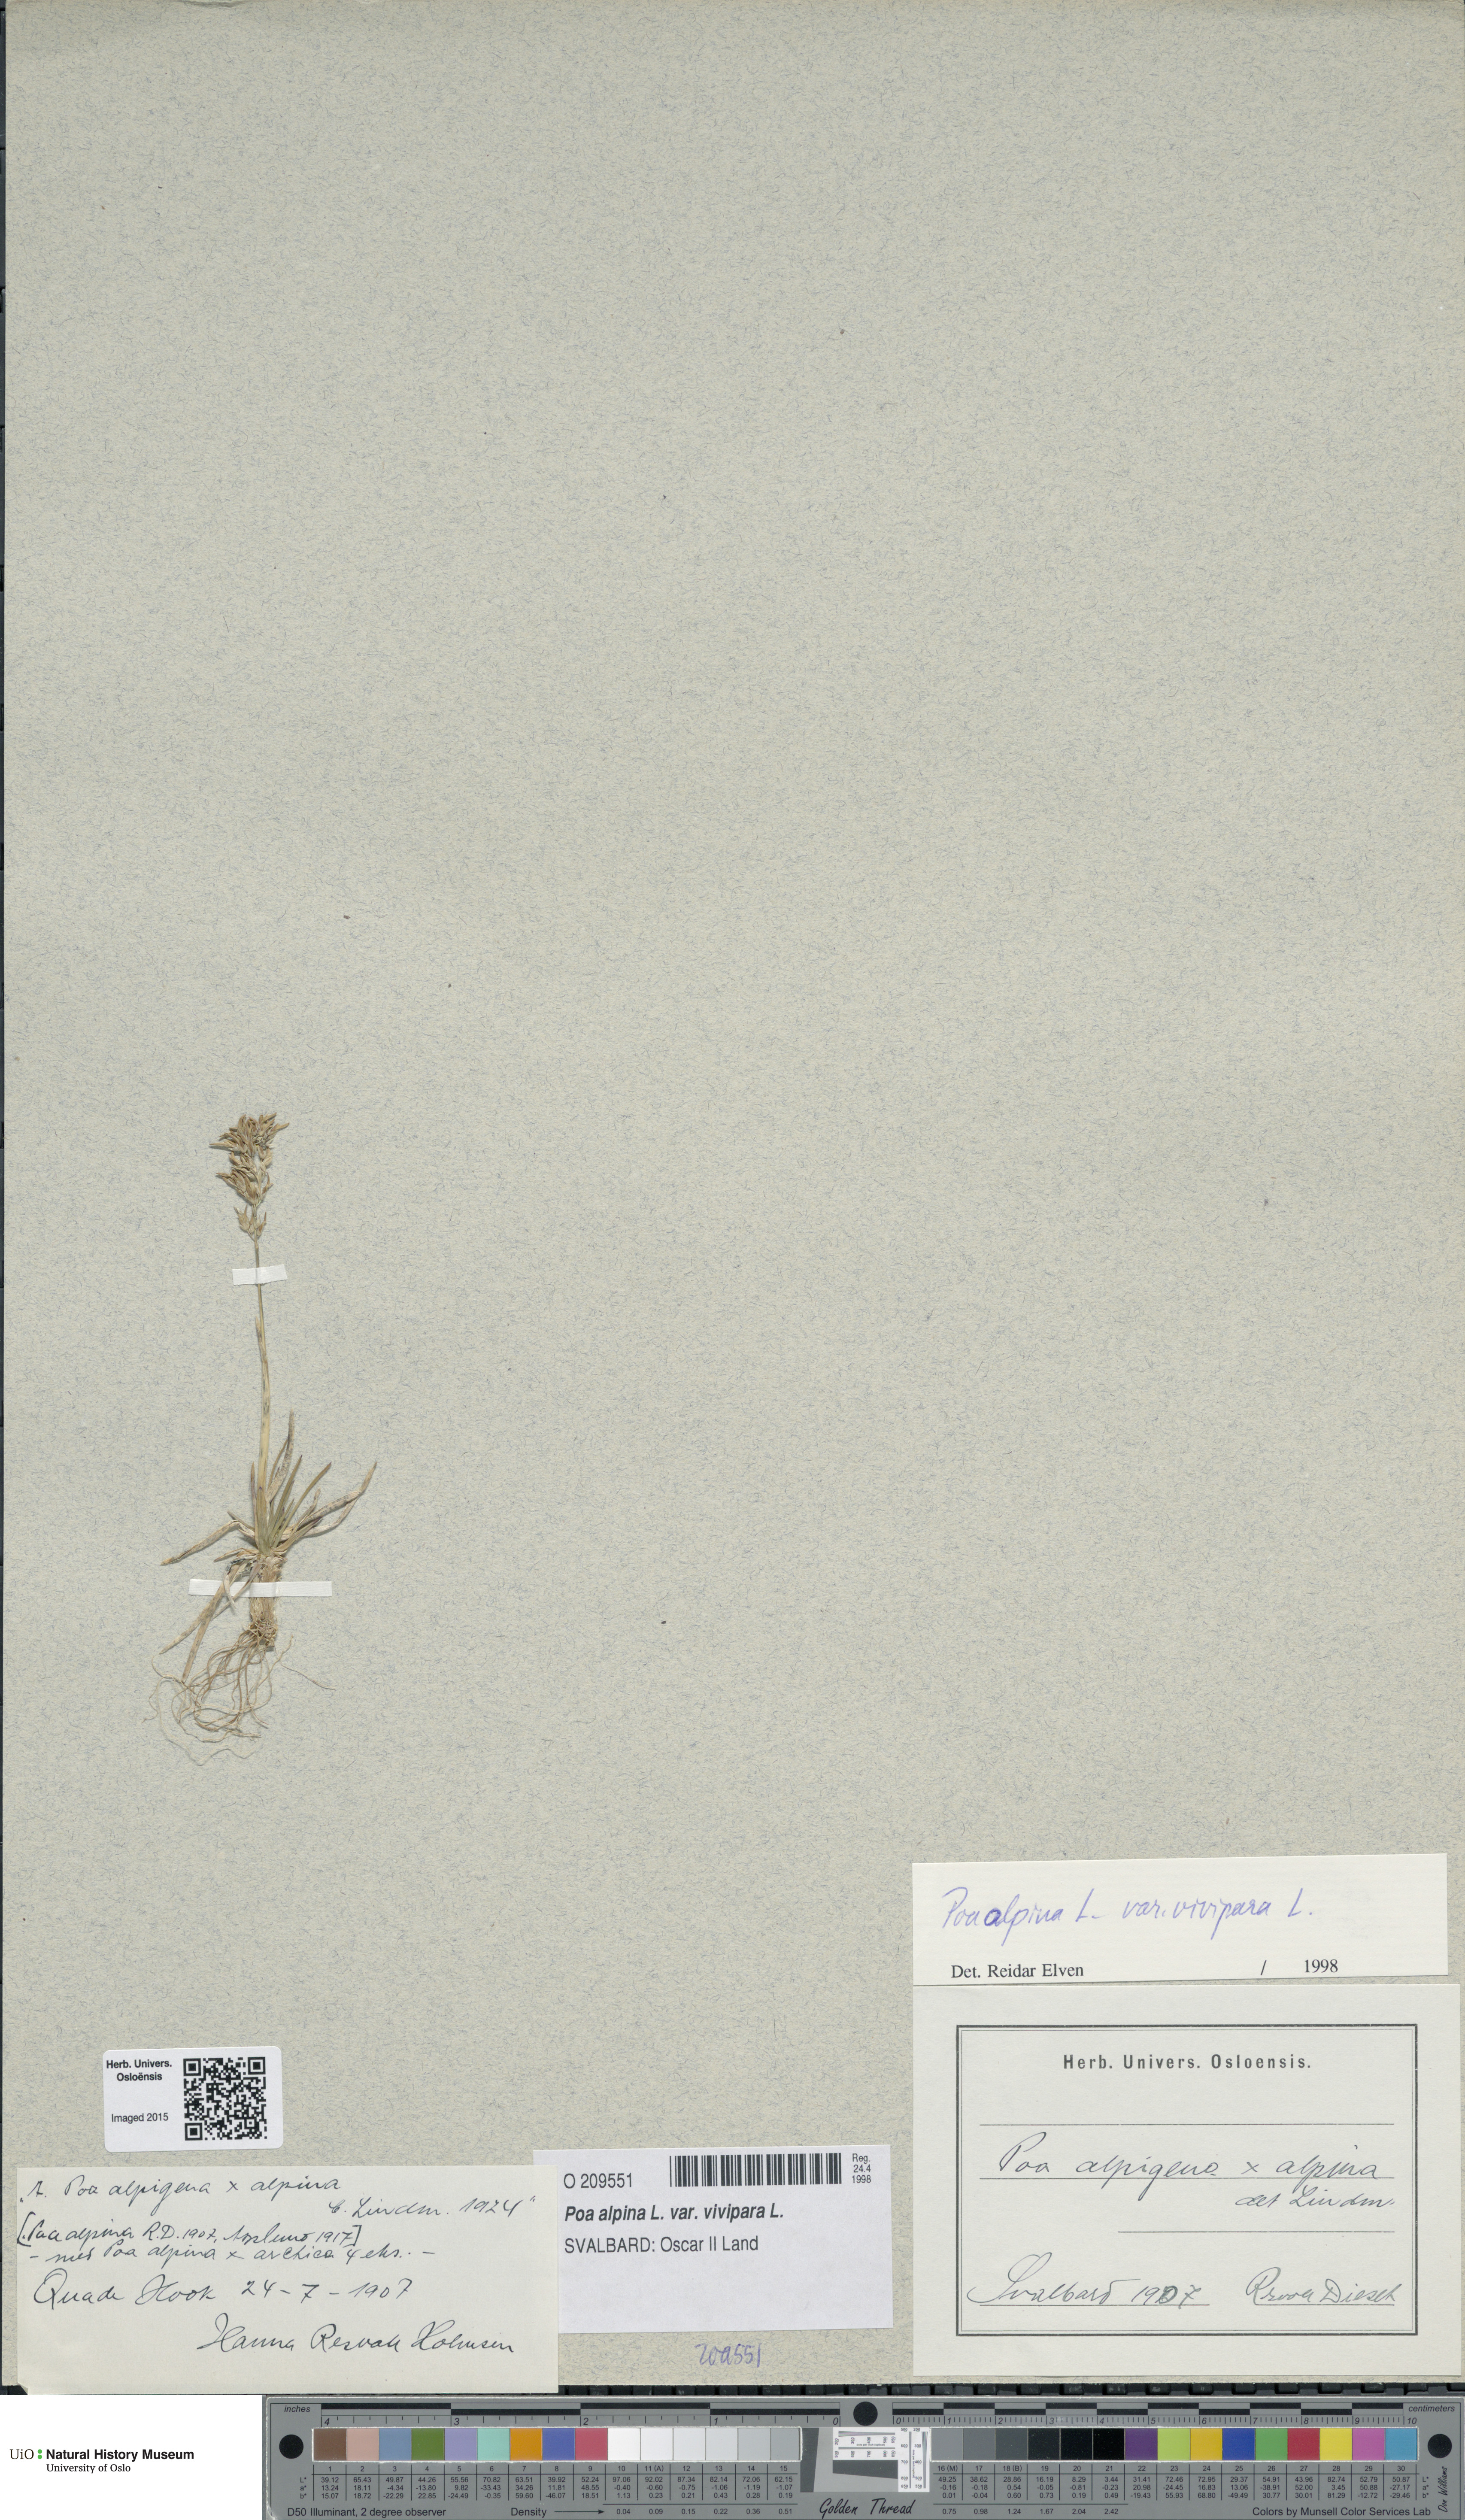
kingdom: Plantae
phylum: Tracheophyta
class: Liliopsida
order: Poales
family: Poaceae
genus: Poa
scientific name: Poa alpina
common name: Alpine bluegrass
